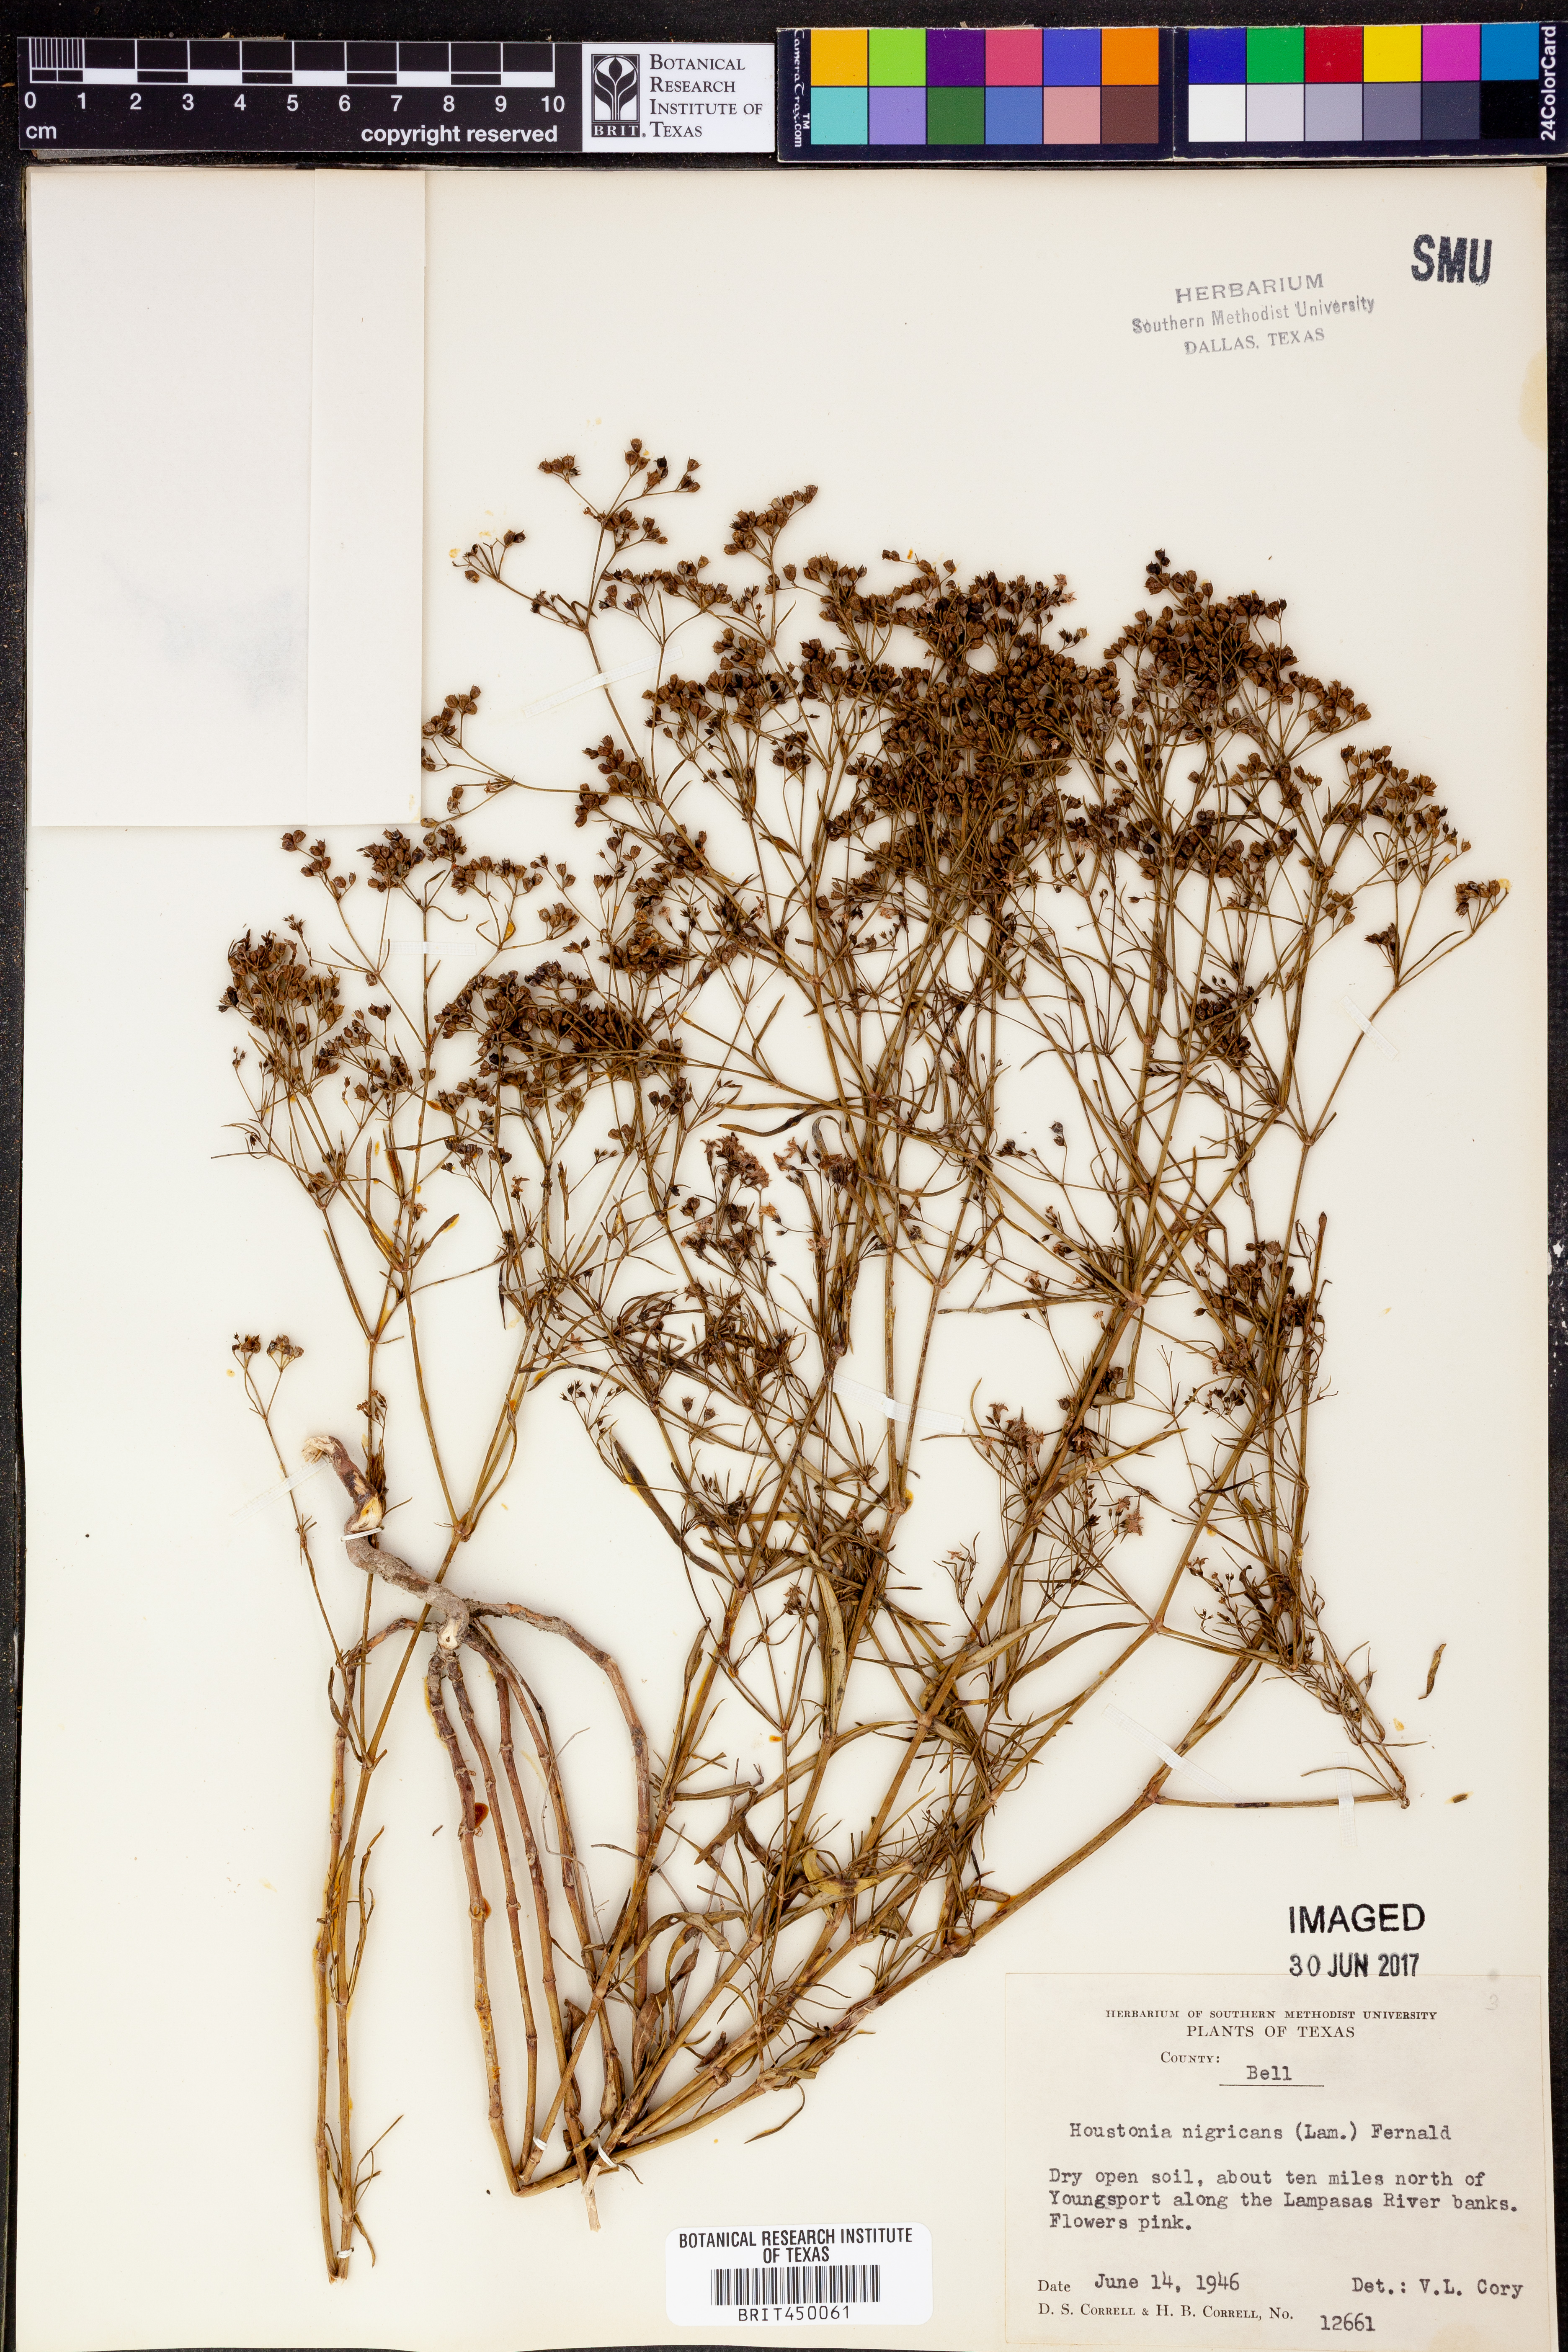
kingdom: Plantae
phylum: Tracheophyta
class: Magnoliopsida
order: Gentianales
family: Rubiaceae
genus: Stenaria
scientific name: Stenaria nigricans
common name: Diamondflowers
